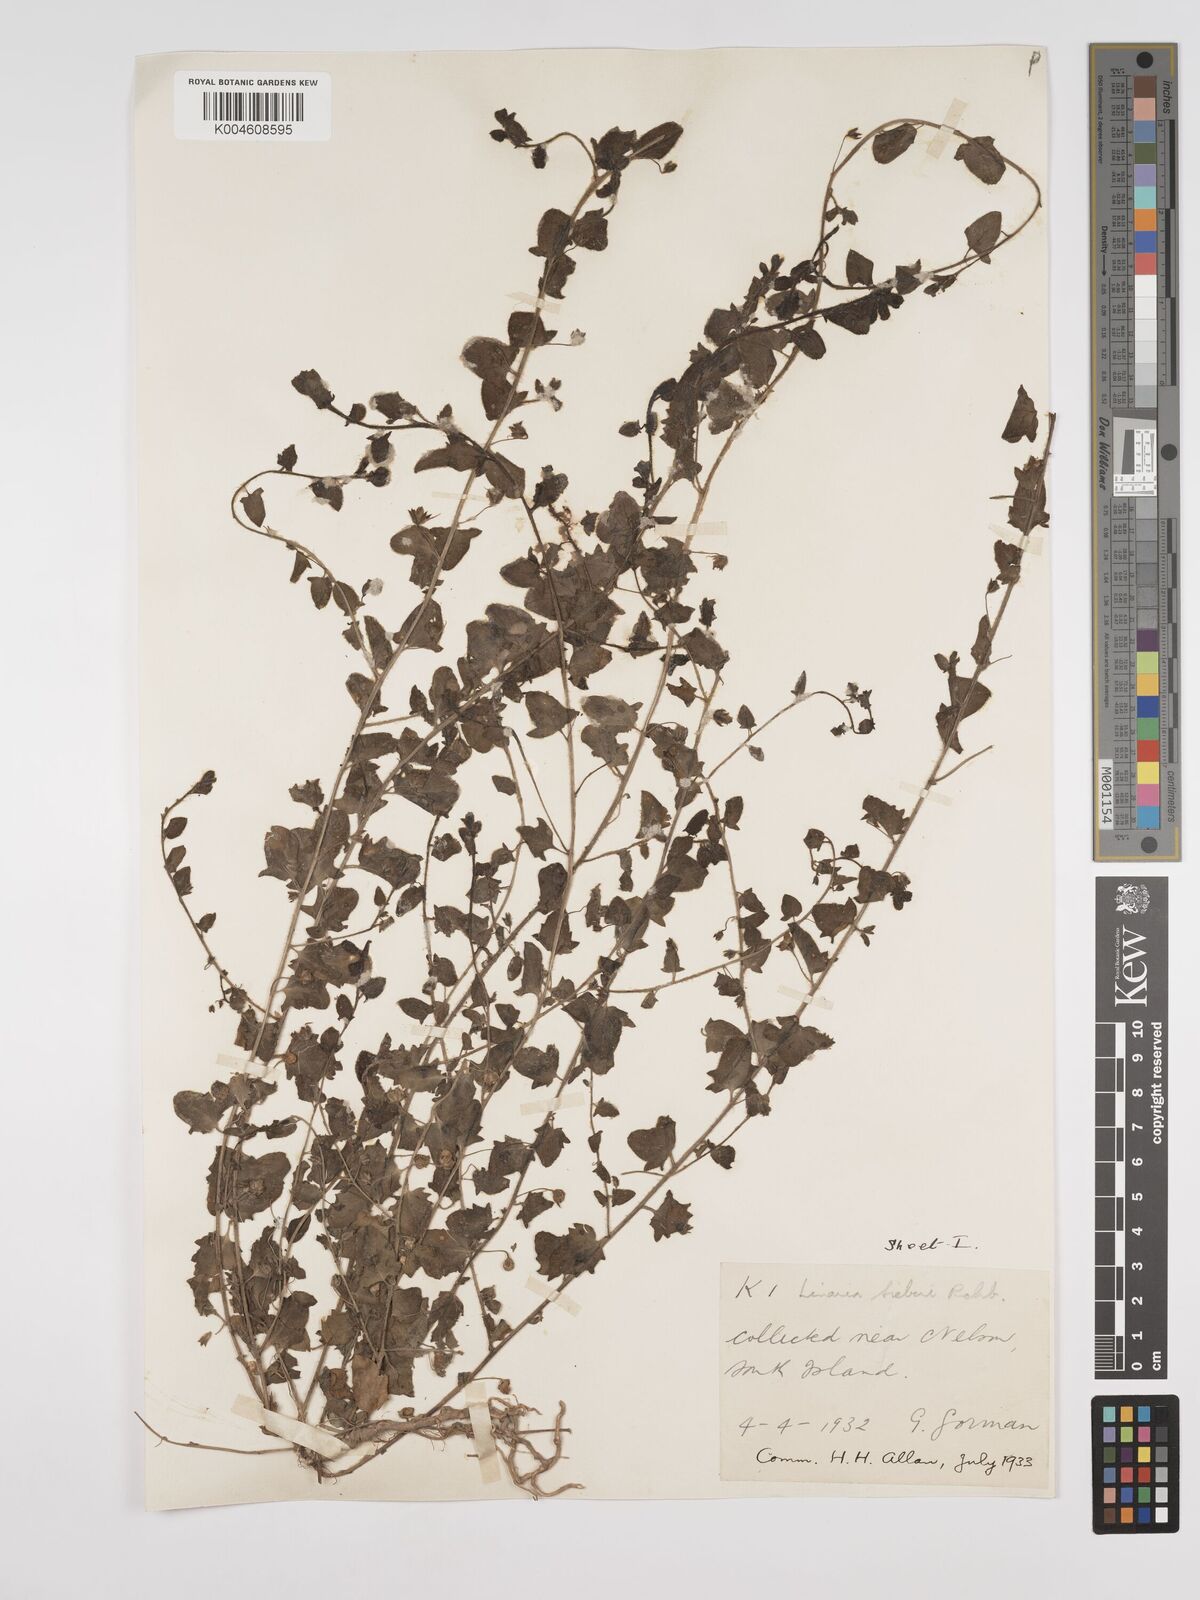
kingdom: Plantae
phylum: Tracheophyta
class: Magnoliopsida
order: Lamiales
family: Plantaginaceae
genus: Kickxia
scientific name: Kickxia elatine
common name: Sharp-leaved fluellen
